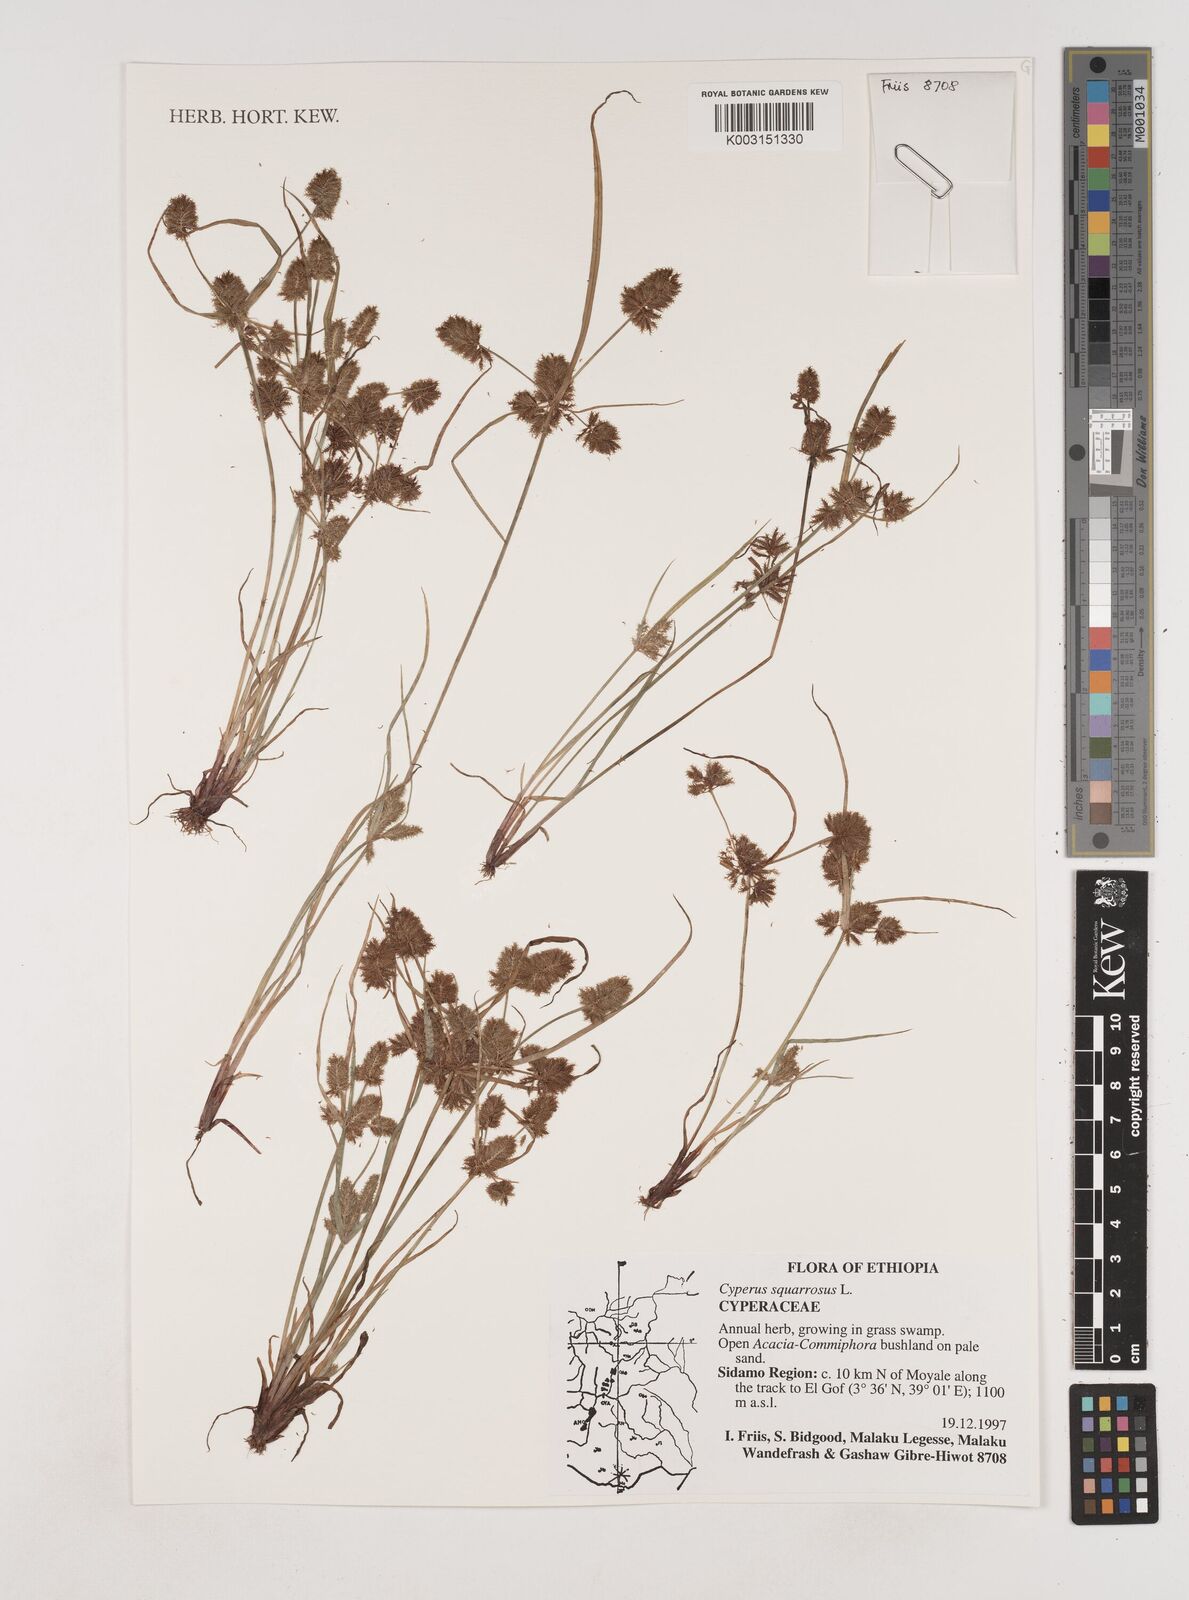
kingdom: Plantae
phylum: Tracheophyta
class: Liliopsida
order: Poales
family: Cyperaceae
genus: Cyperus
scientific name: Cyperus squarrosus
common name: Awned cyperus
